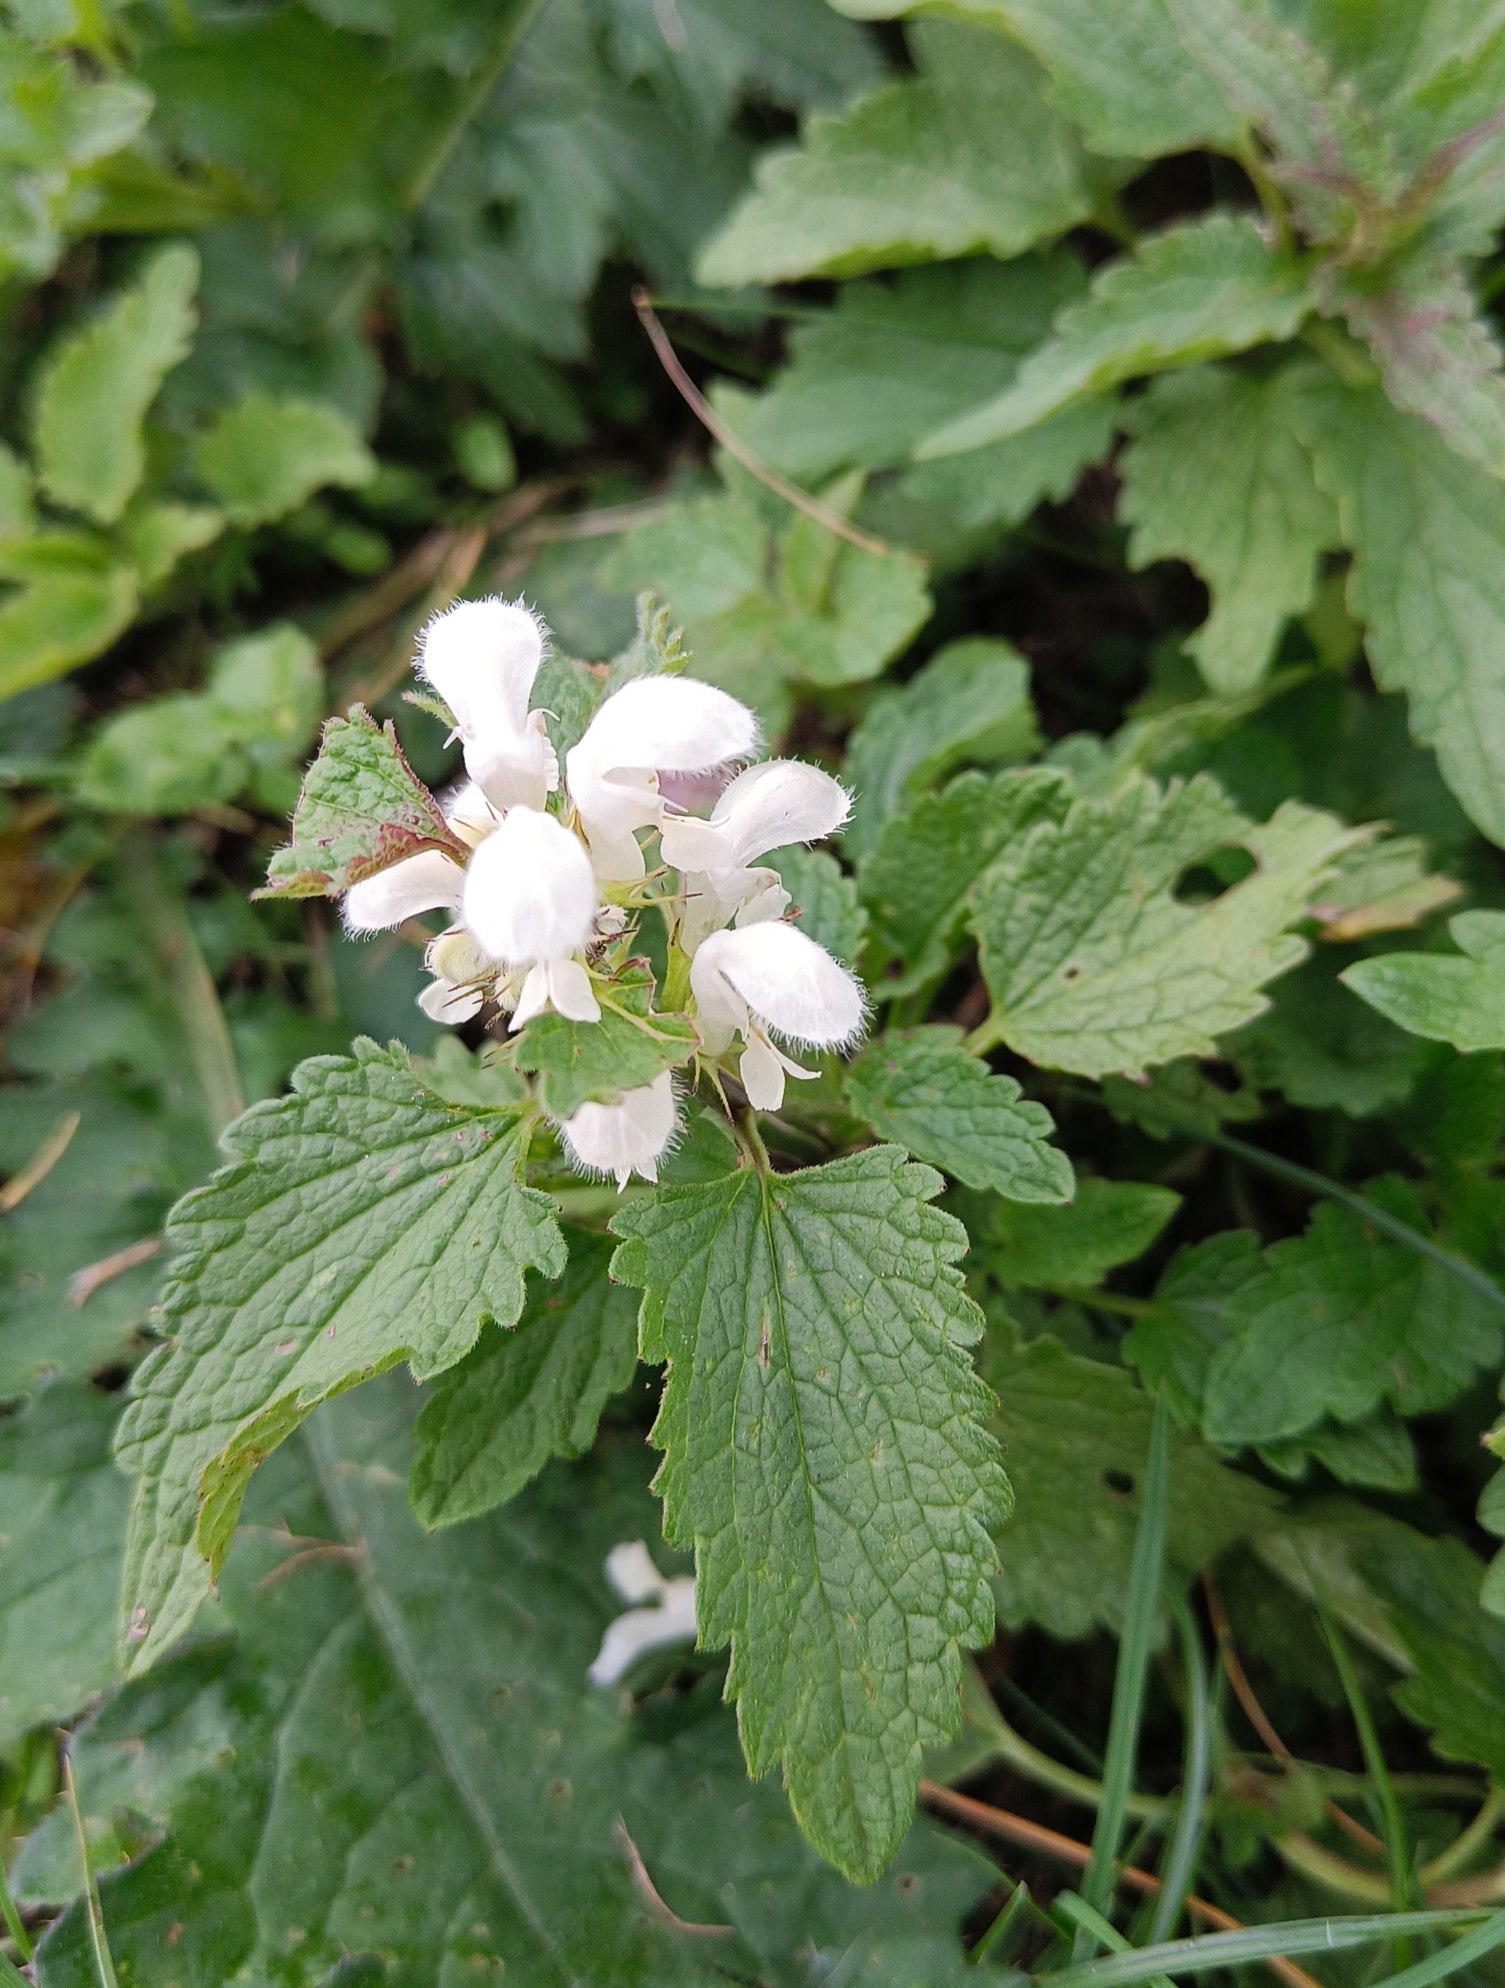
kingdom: Plantae
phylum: Tracheophyta
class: Magnoliopsida
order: Lamiales
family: Lamiaceae
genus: Lamium
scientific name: Lamium album
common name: Døvnælde
